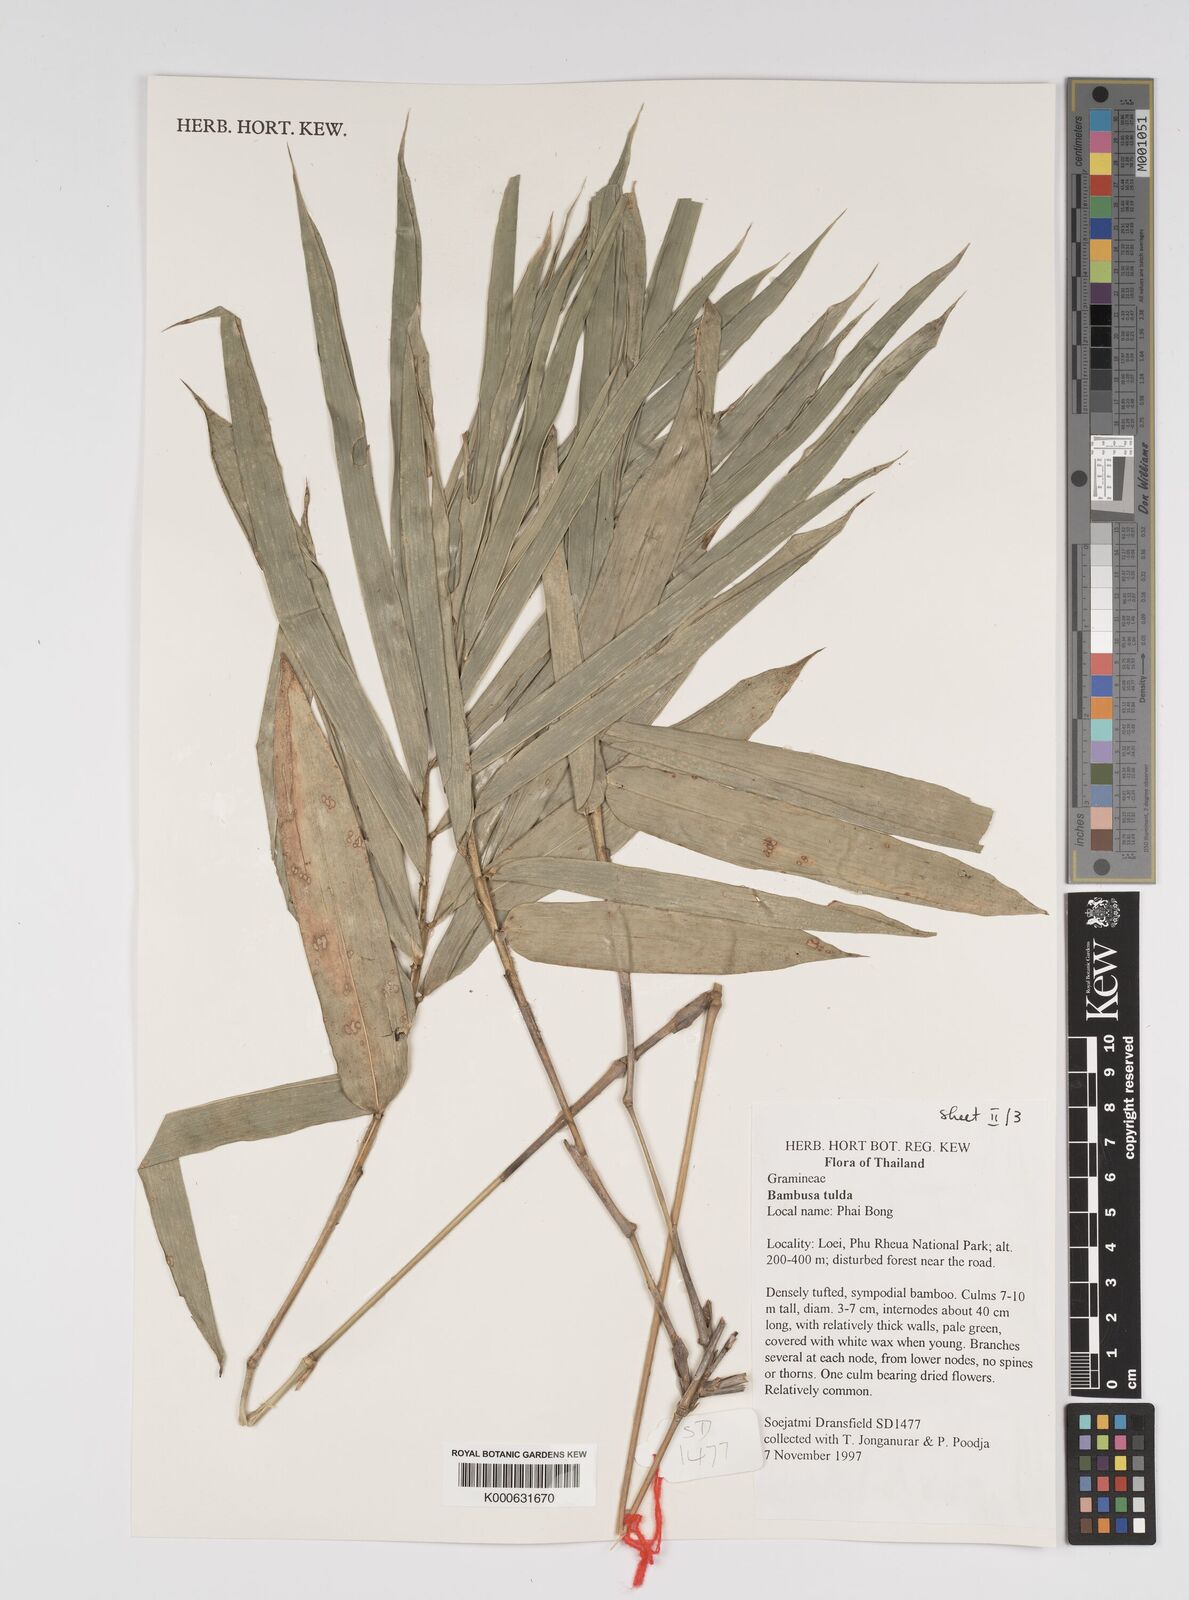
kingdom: Plantae
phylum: Tracheophyta
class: Liliopsida
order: Poales
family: Poaceae
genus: Bambusa
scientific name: Bambusa
